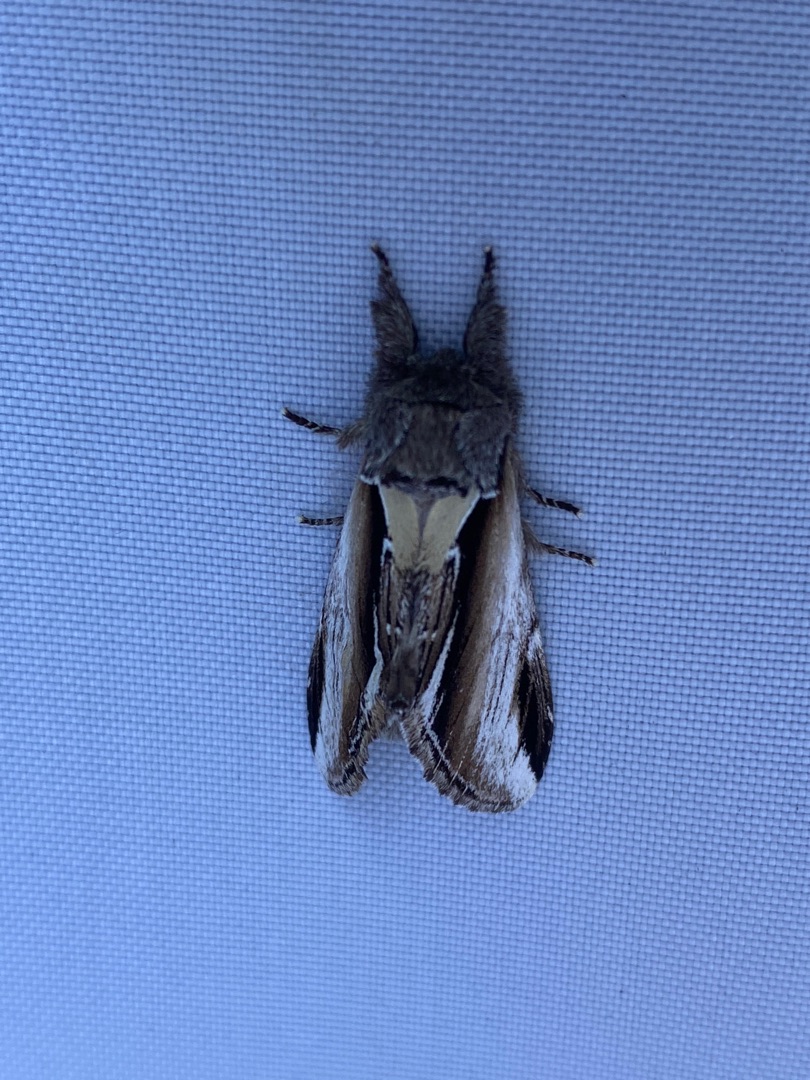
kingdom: Animalia
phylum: Arthropoda
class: Insecta
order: Lepidoptera
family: Notodontidae
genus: Pheosia
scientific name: Pheosia gnoma
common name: Birkeporcelænsspinder
